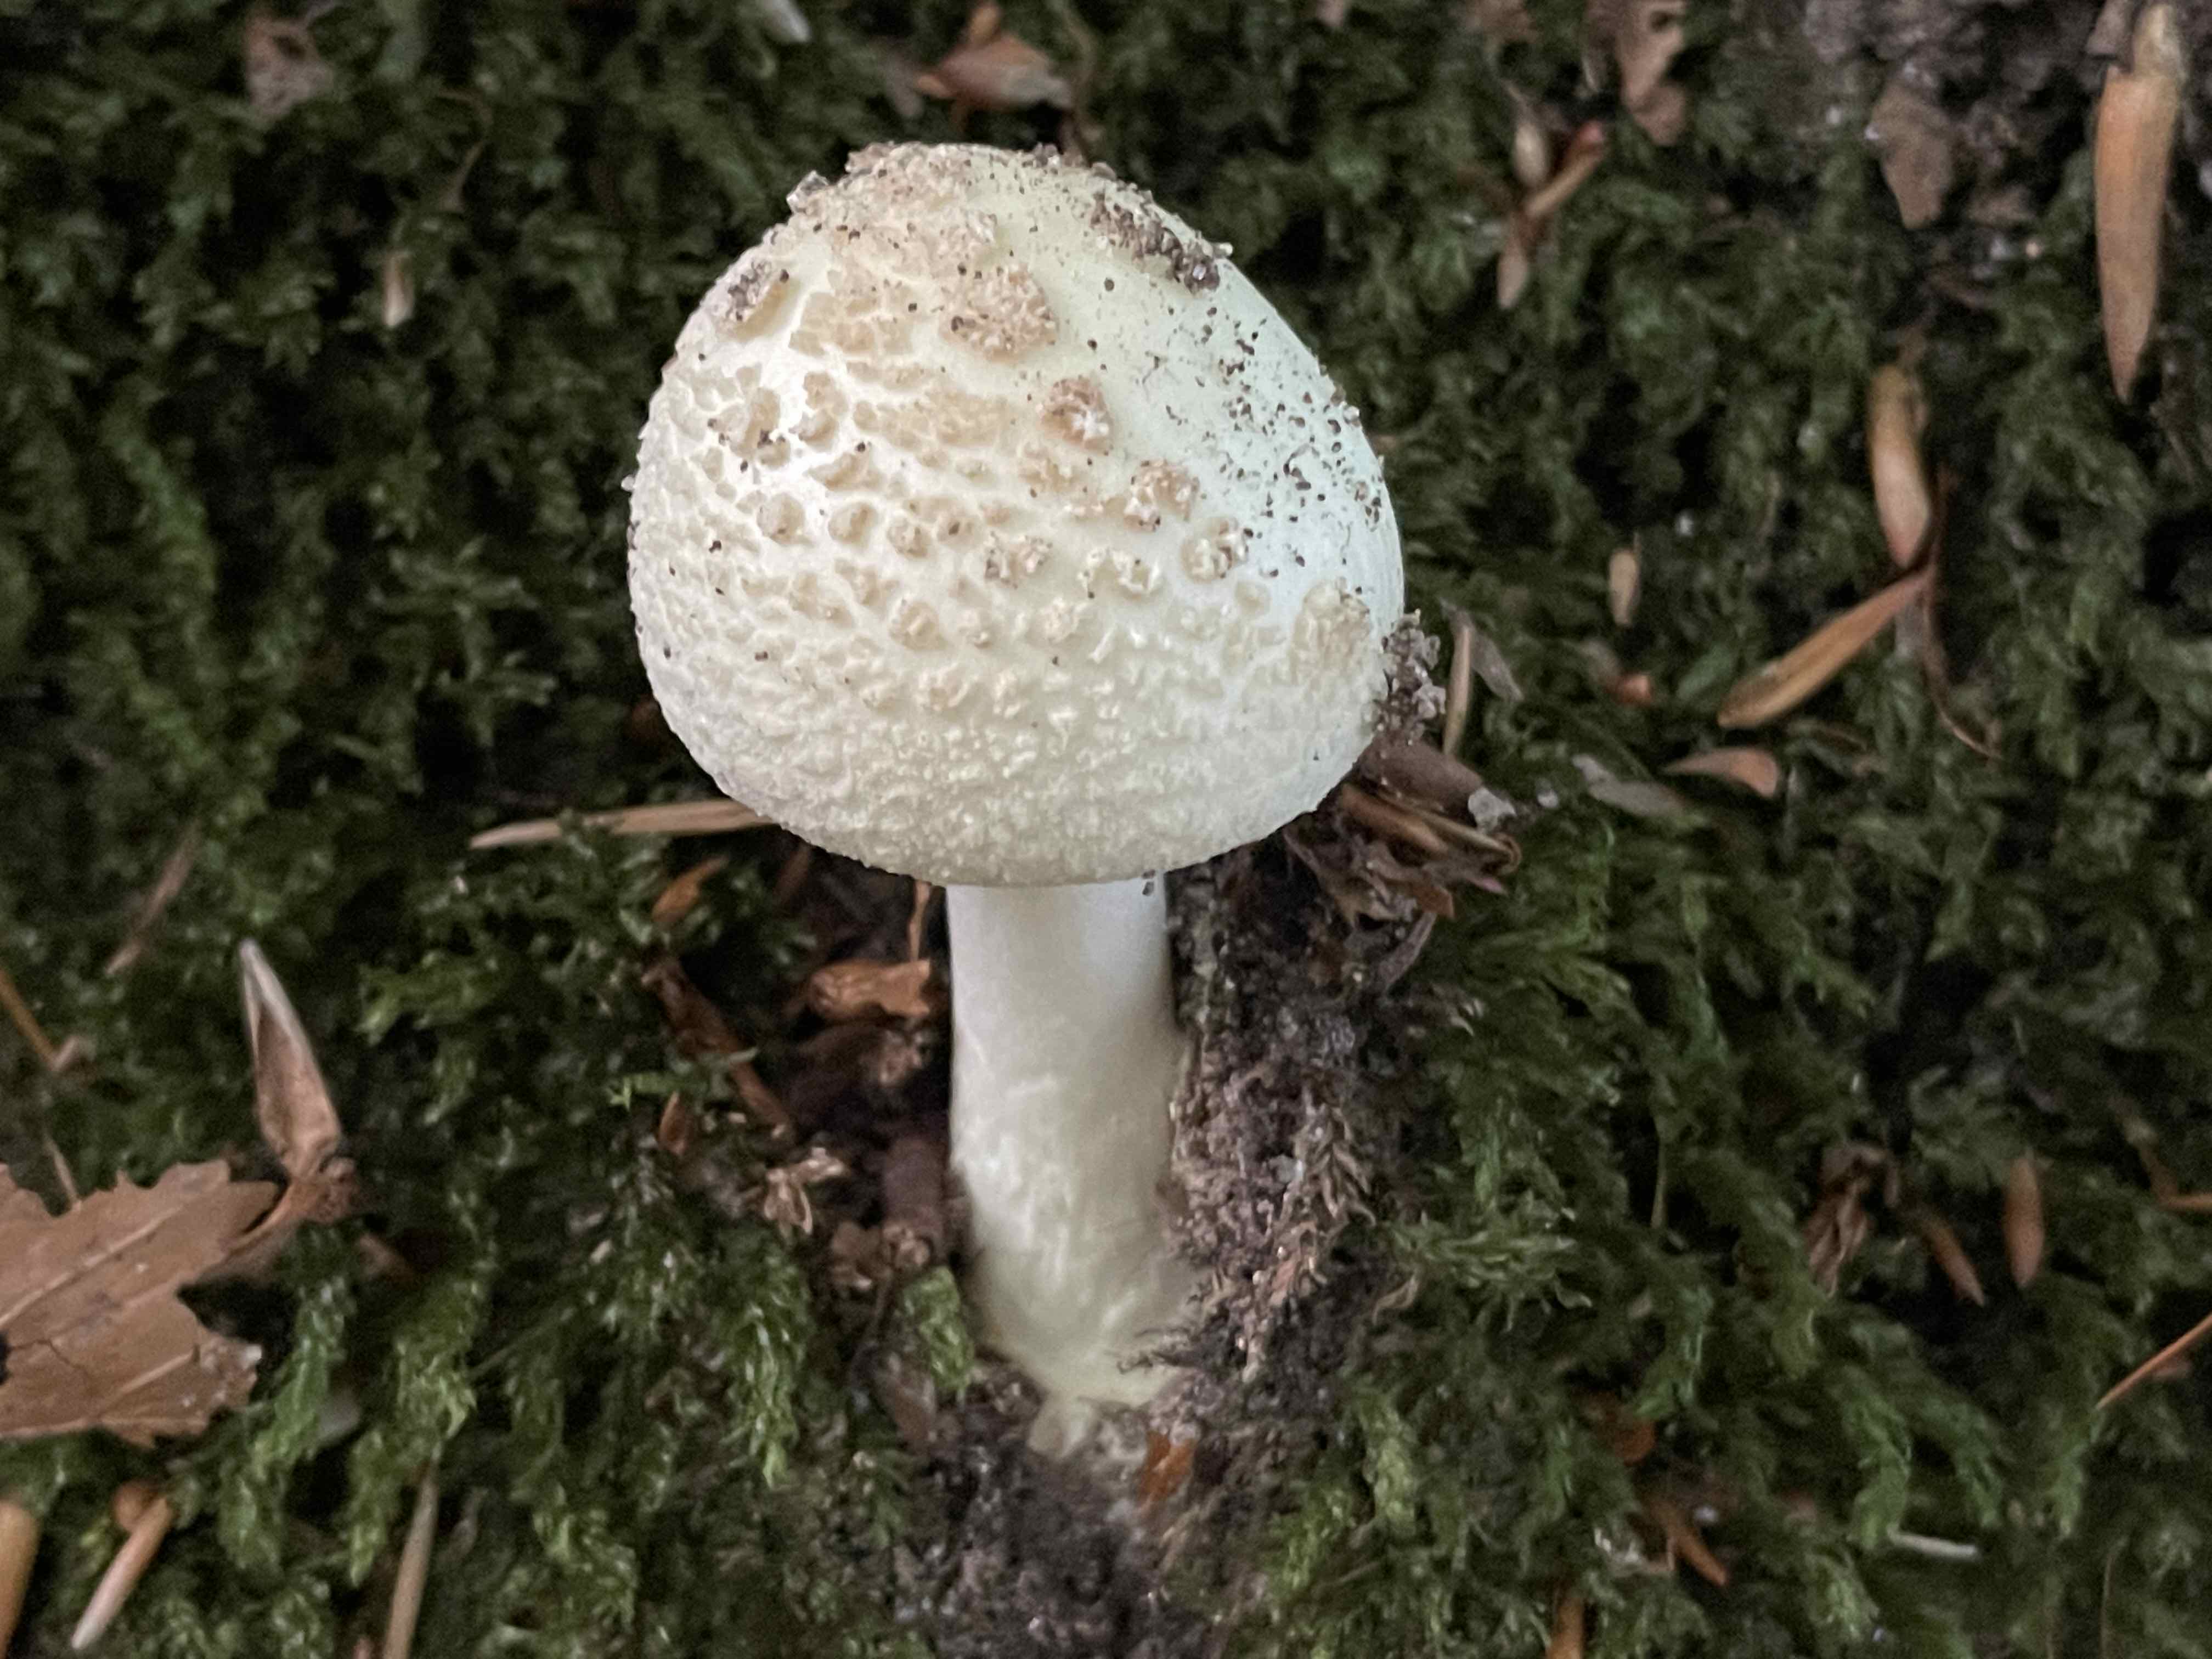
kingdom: Fungi
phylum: Basidiomycota
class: Agaricomycetes
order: Agaricales
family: Amanitaceae
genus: Amanita
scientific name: Amanita citrina
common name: kugleknoldet fluesvamp
